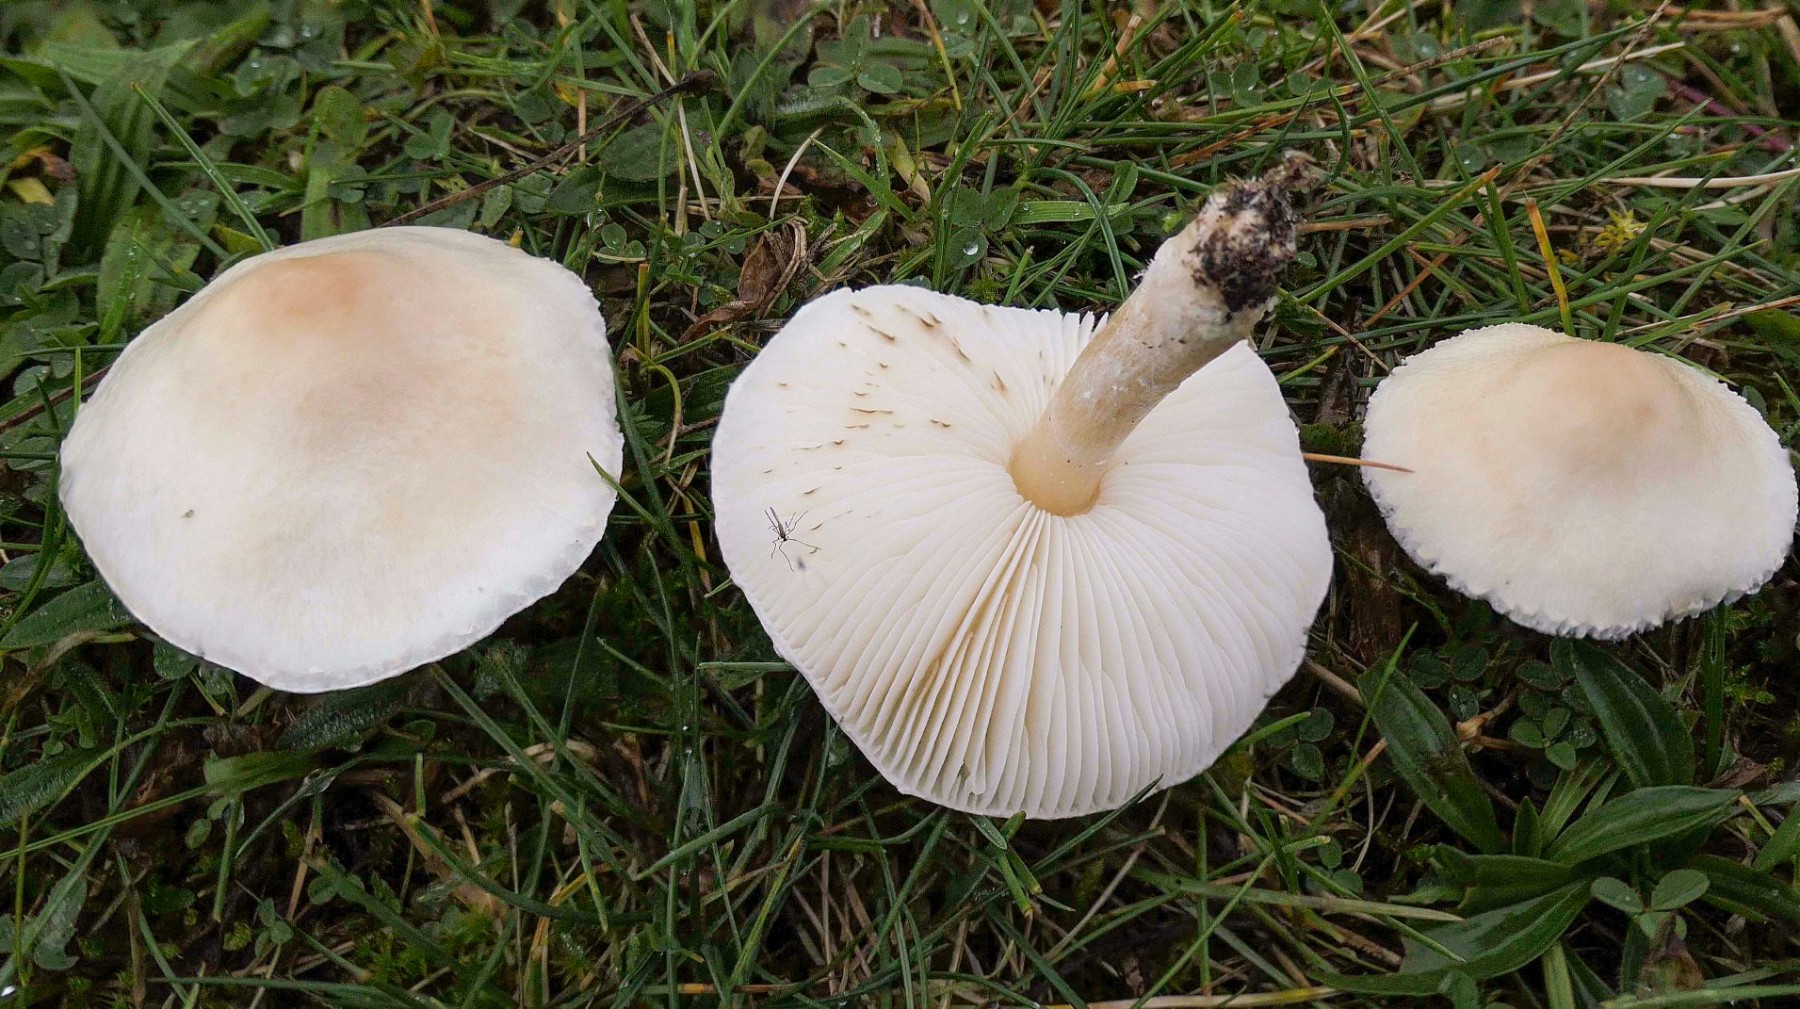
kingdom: Fungi
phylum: Basidiomycota
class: Agaricomycetes
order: Agaricales
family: Agaricaceae
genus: Lepiota
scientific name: Lepiota erminea
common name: hvid parasolhat
